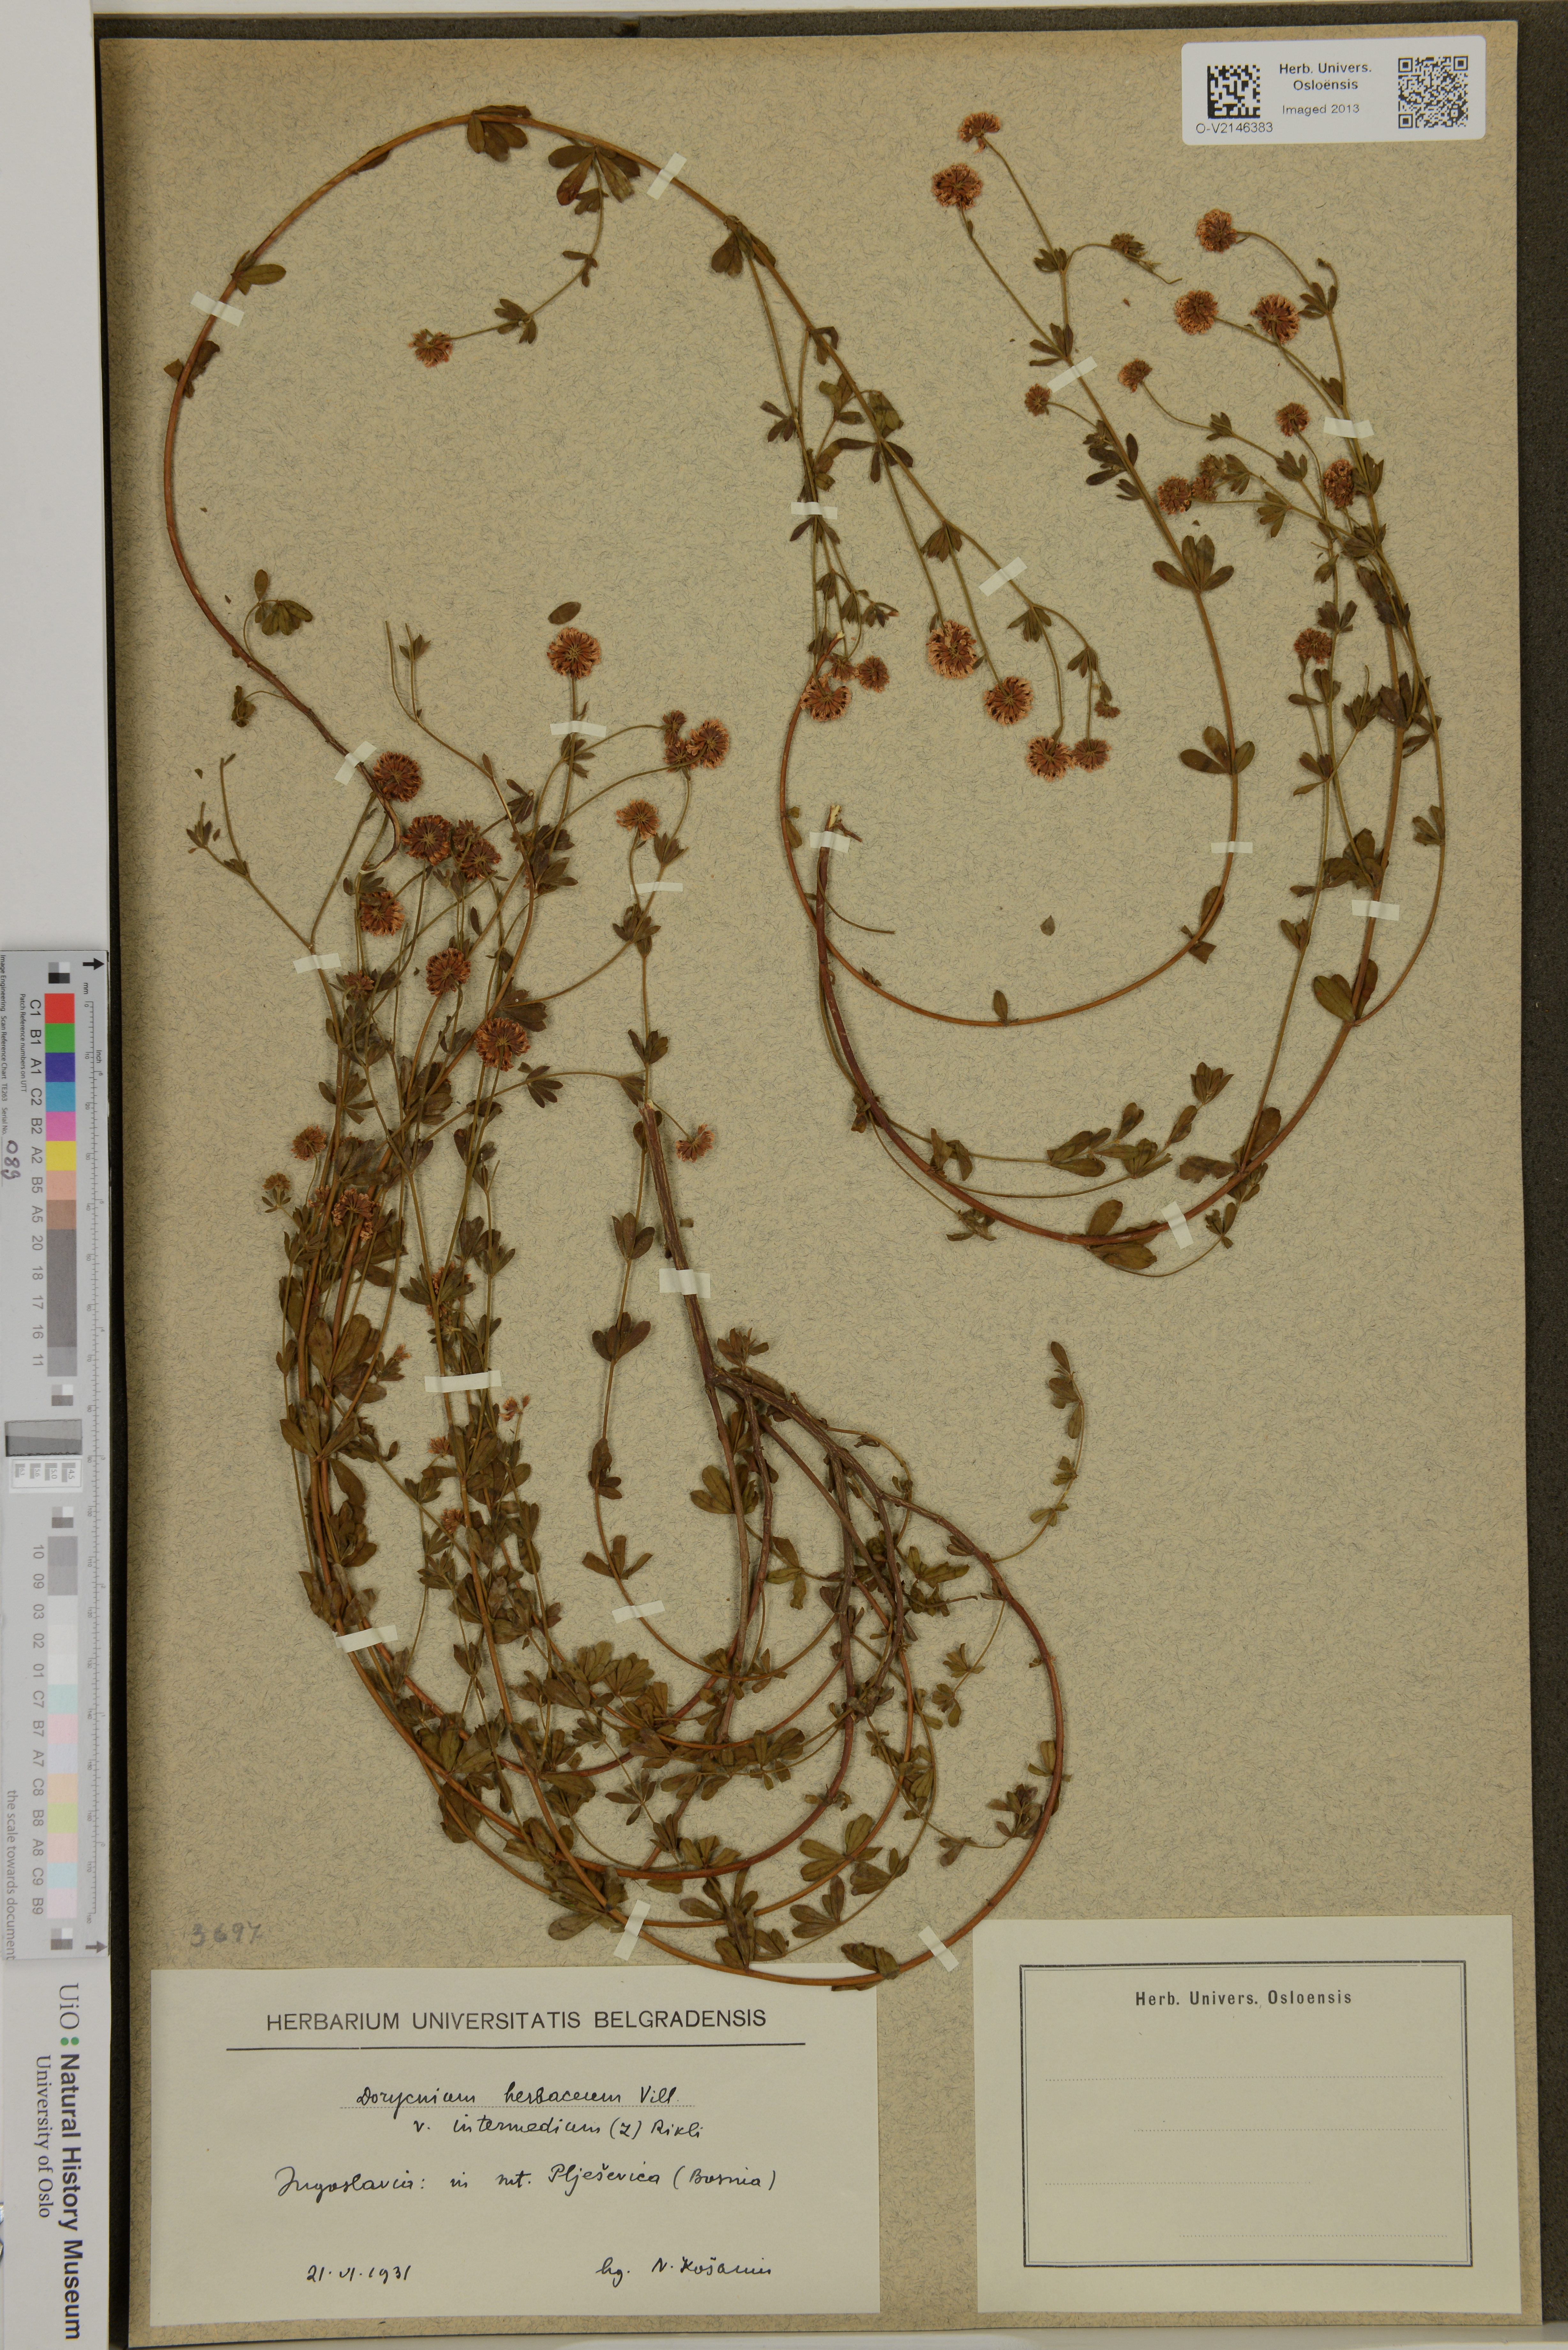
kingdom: Plantae
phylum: Tracheophyta
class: Magnoliopsida
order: Fabales
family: Fabaceae
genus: Lotus
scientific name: Lotus herbaceus
